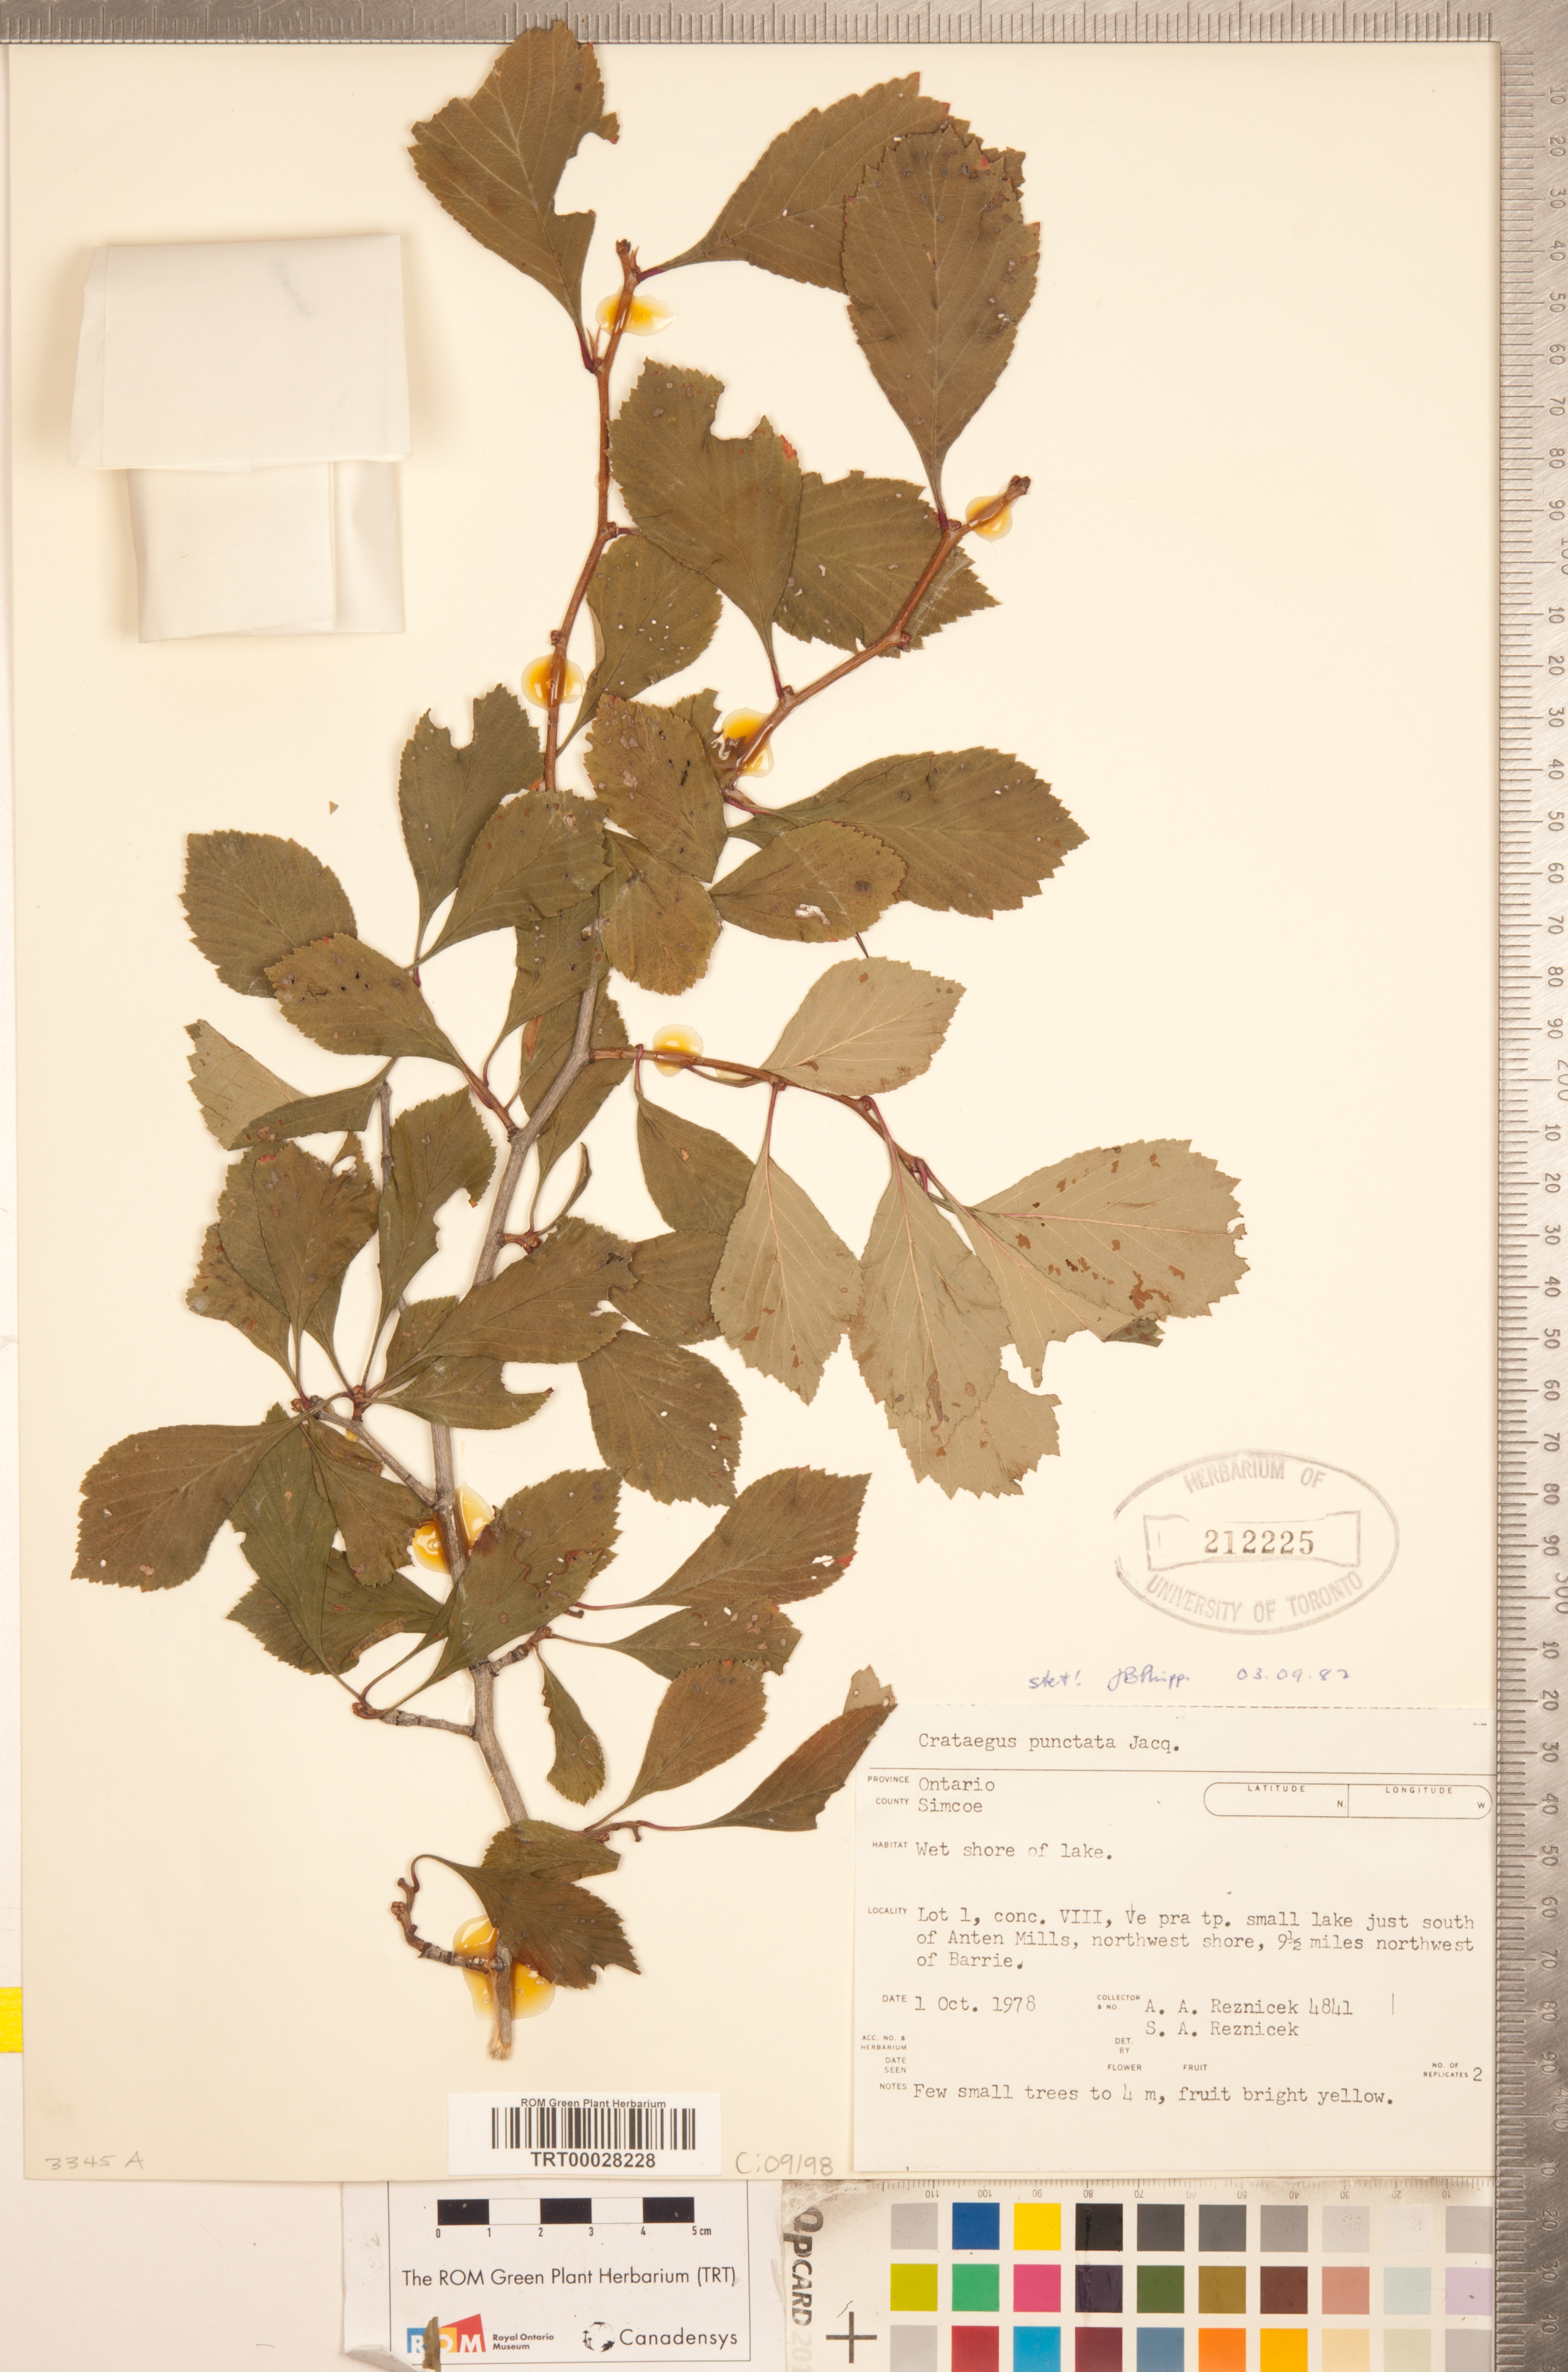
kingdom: Plantae
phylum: Tracheophyta
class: Magnoliopsida
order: Rosales
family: Rosaceae
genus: Crataegus
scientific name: Crataegus punctata
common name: Dotted hawthorn
